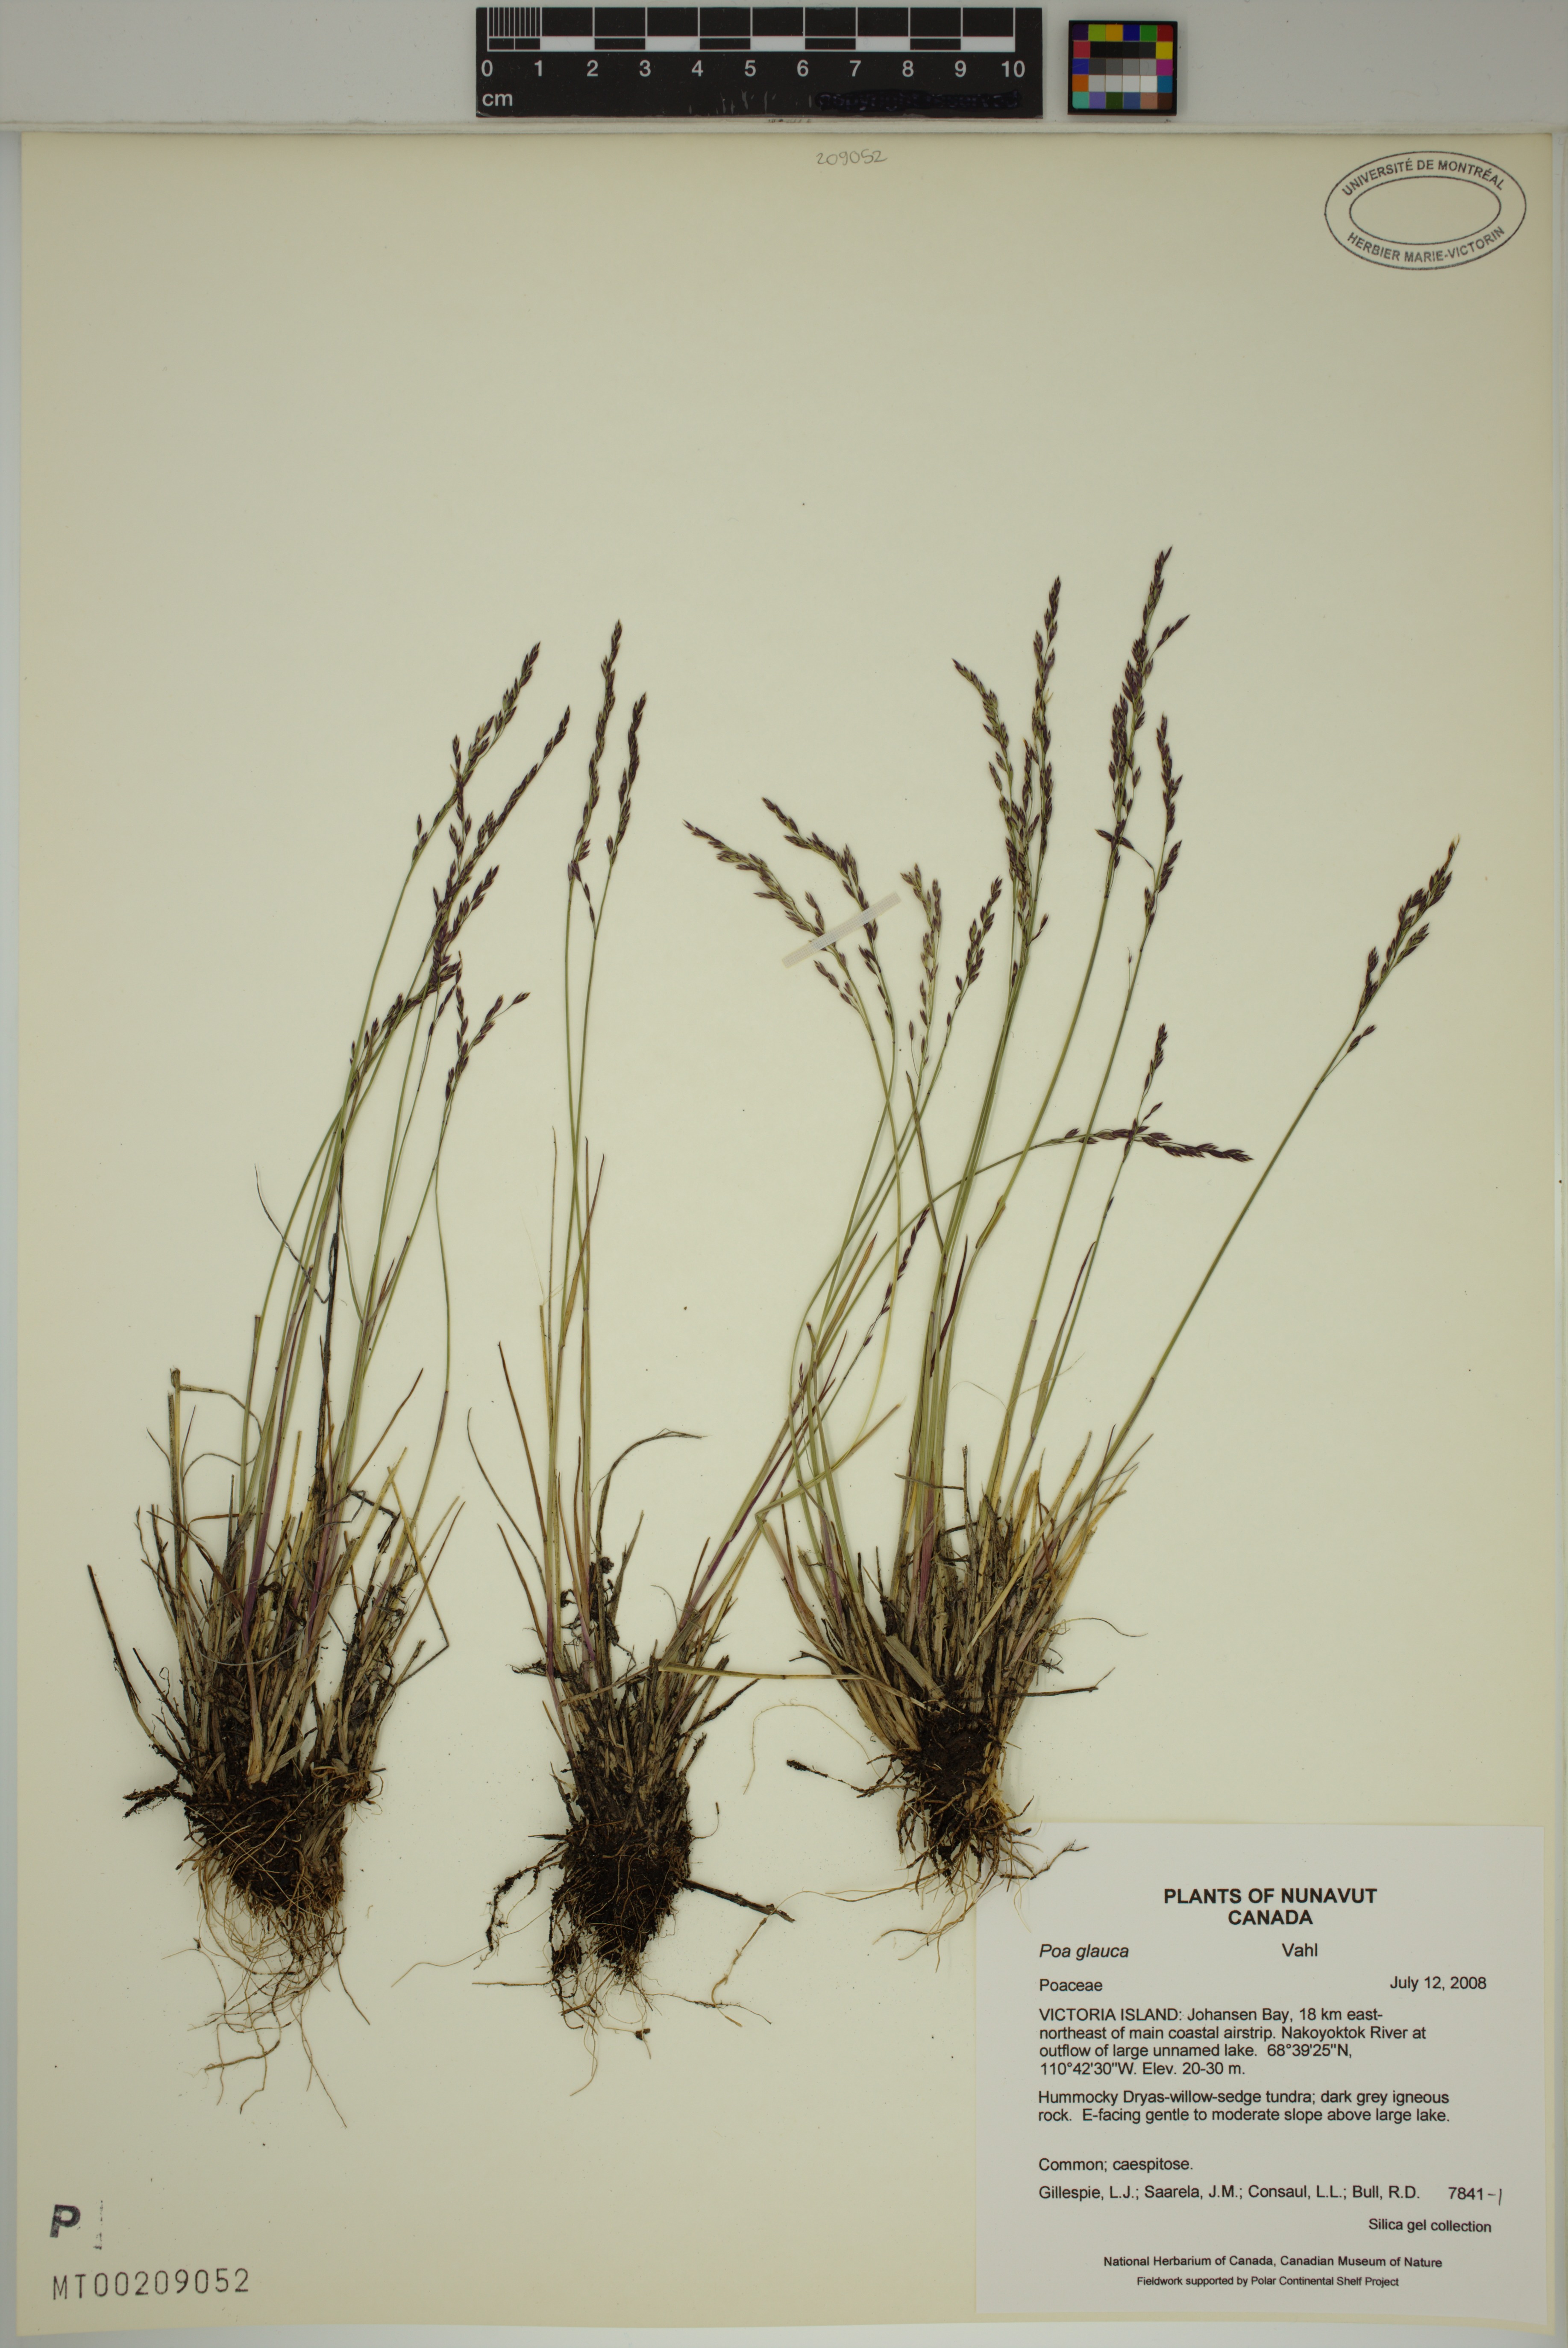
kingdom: Plantae
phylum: Tracheophyta
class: Liliopsida
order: Poales
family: Poaceae
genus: Poa
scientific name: Poa glauca
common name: Glaucous bluegrass
